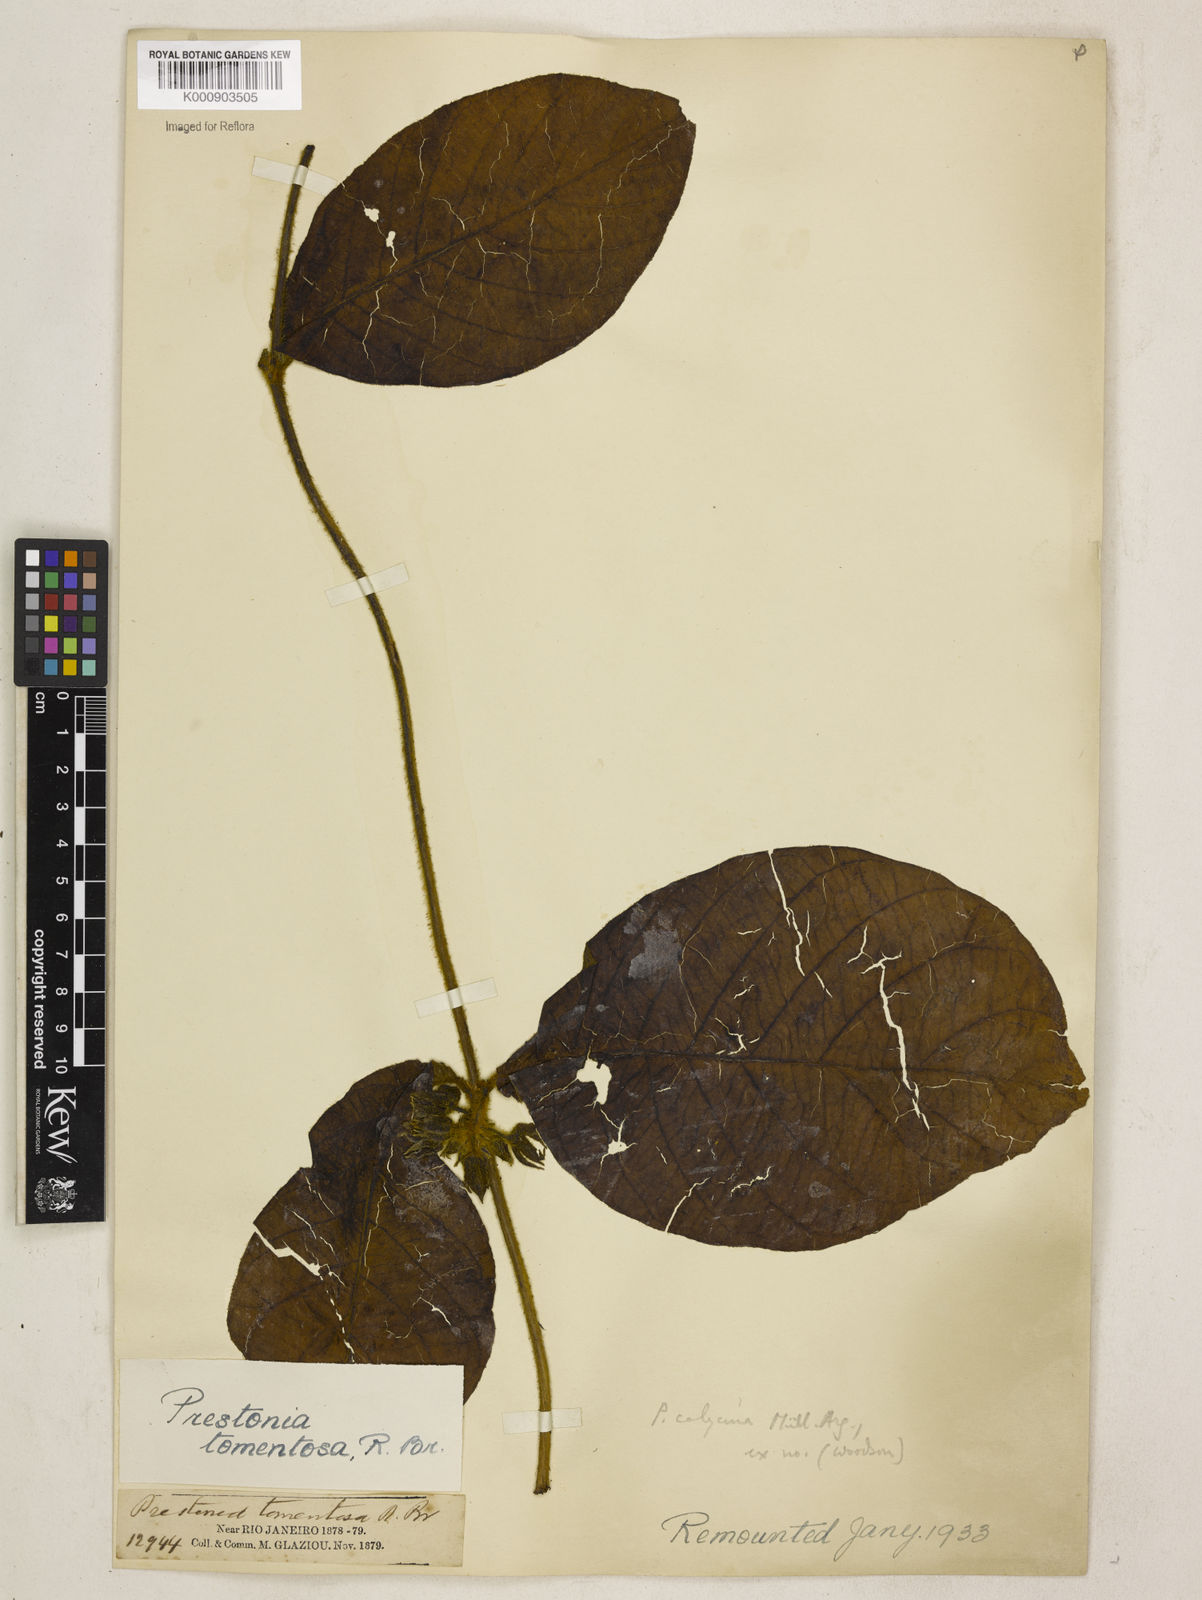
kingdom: Plantae
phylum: Tracheophyta
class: Magnoliopsida
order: Gentianales
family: Apocynaceae
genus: Prestonia
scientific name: Prestonia
